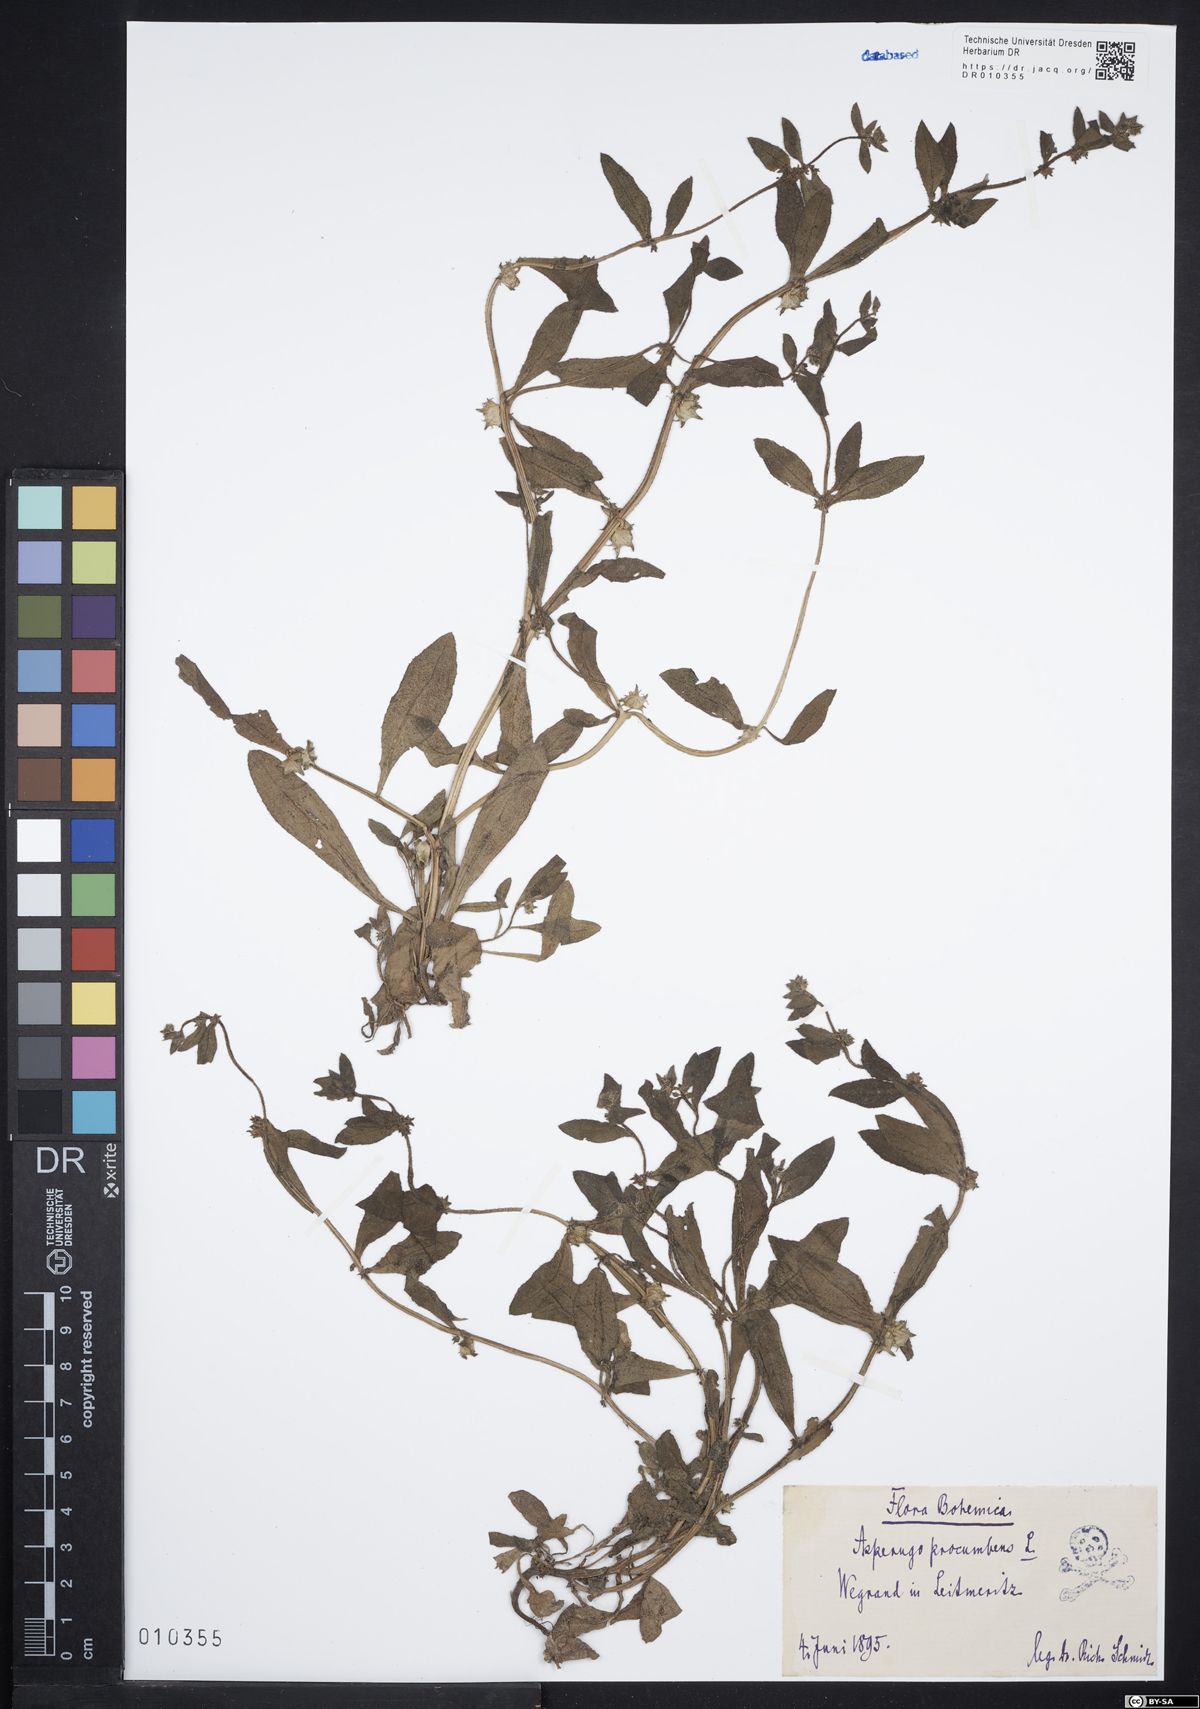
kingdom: Plantae
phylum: Tracheophyta
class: Magnoliopsida
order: Boraginales
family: Boraginaceae
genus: Asperugo
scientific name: Asperugo procumbens
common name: Madwort
